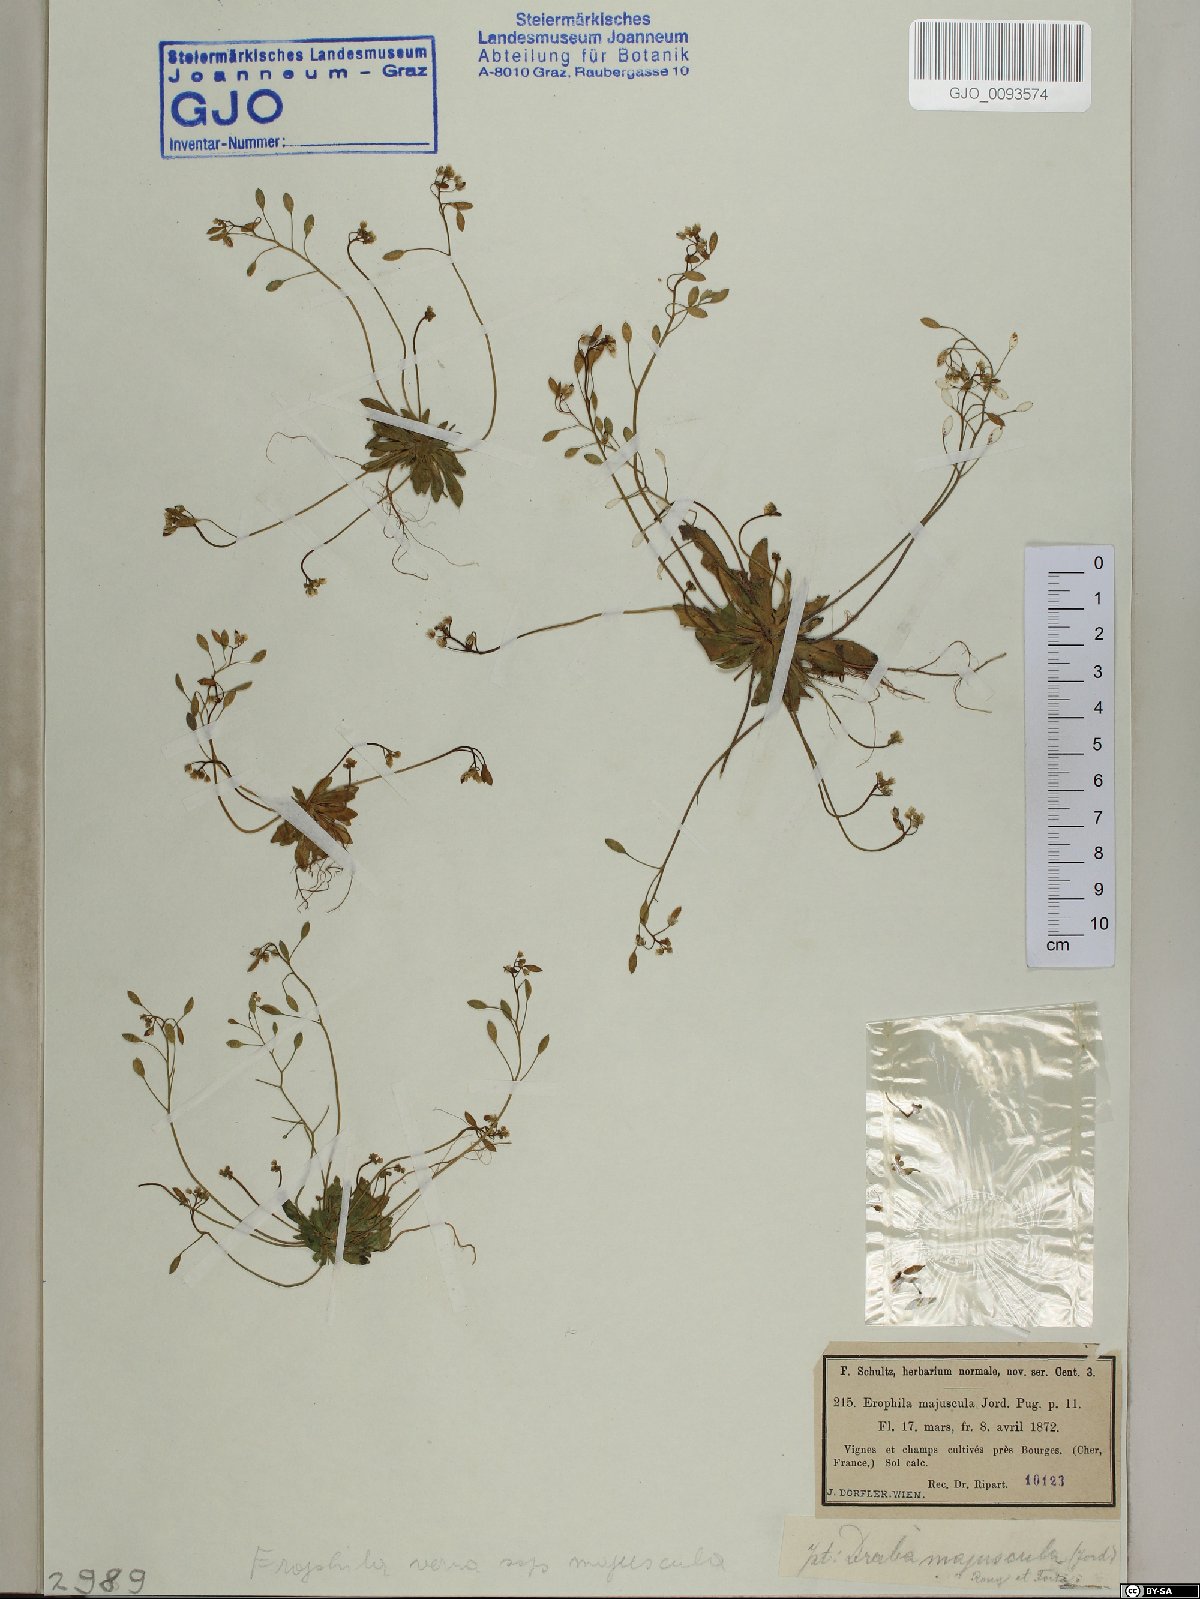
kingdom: Plantae
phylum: Tracheophyta
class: Magnoliopsida
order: Brassicales
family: Brassicaceae
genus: Draba
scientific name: Draba verna
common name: Spring draba
